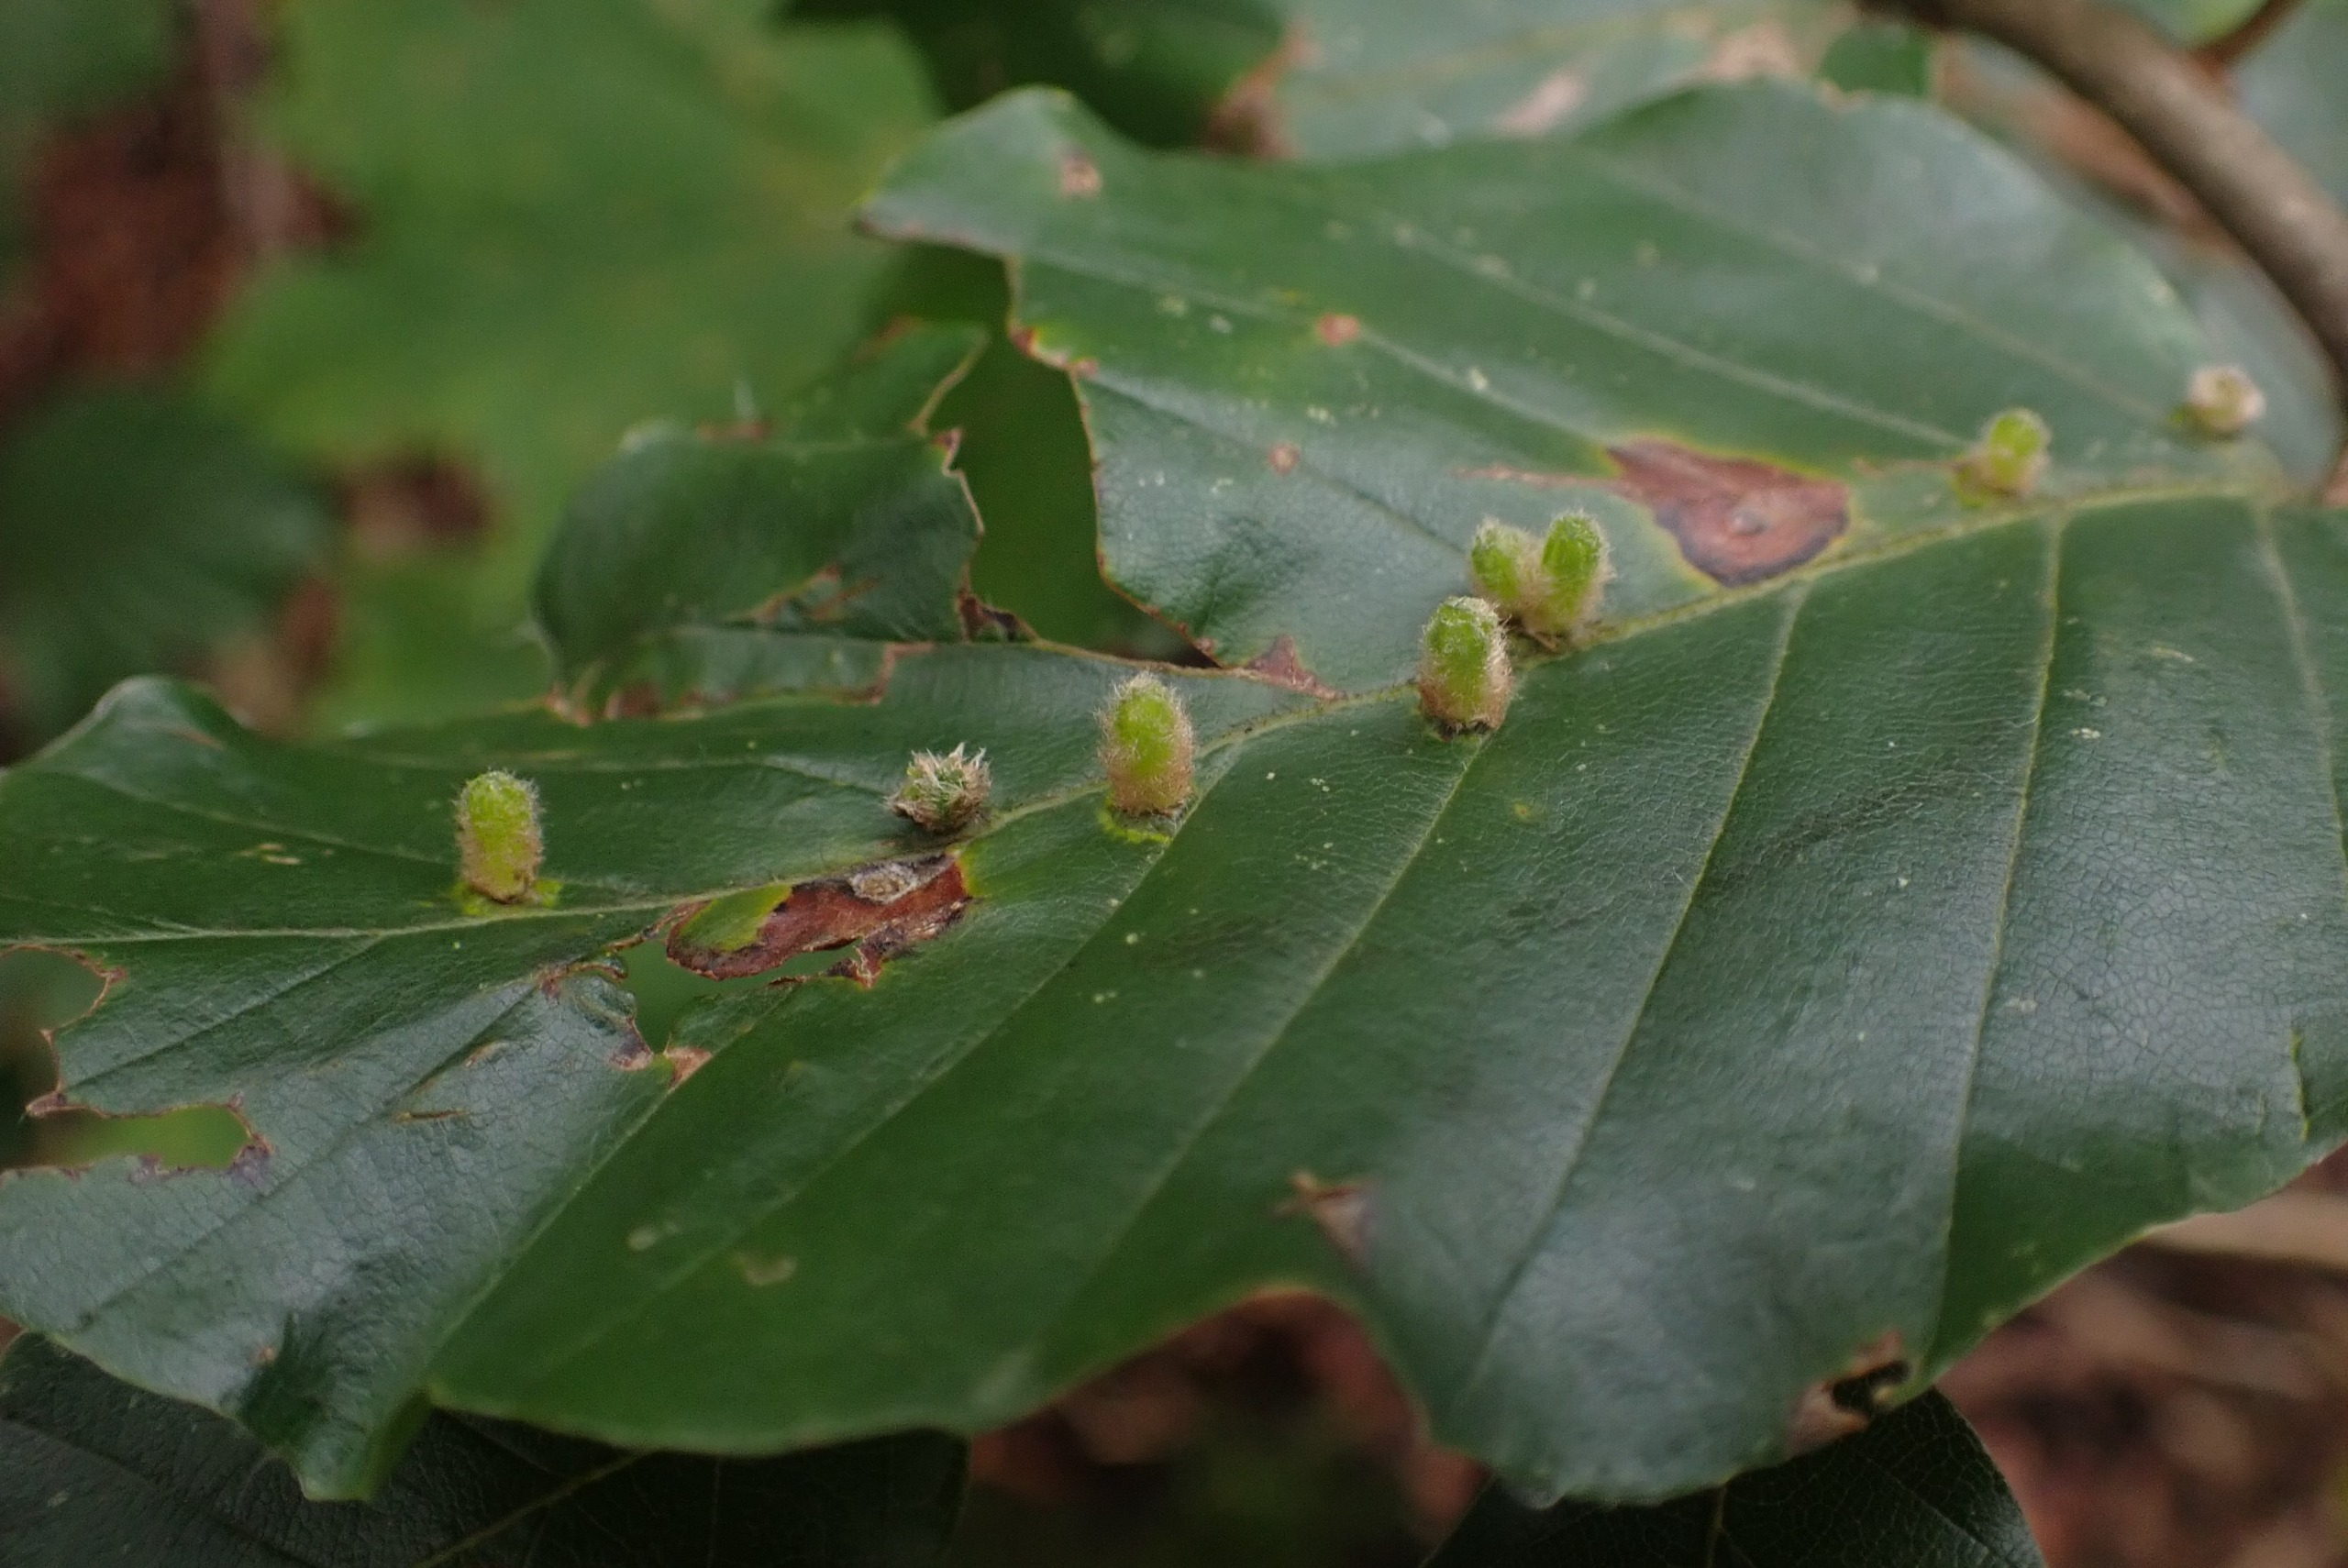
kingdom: Animalia
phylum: Arthropoda
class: Insecta
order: Diptera
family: Cecidomyiidae
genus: Hartigiola
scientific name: Hartigiola annulipes
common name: Skovtroldegalmyg
